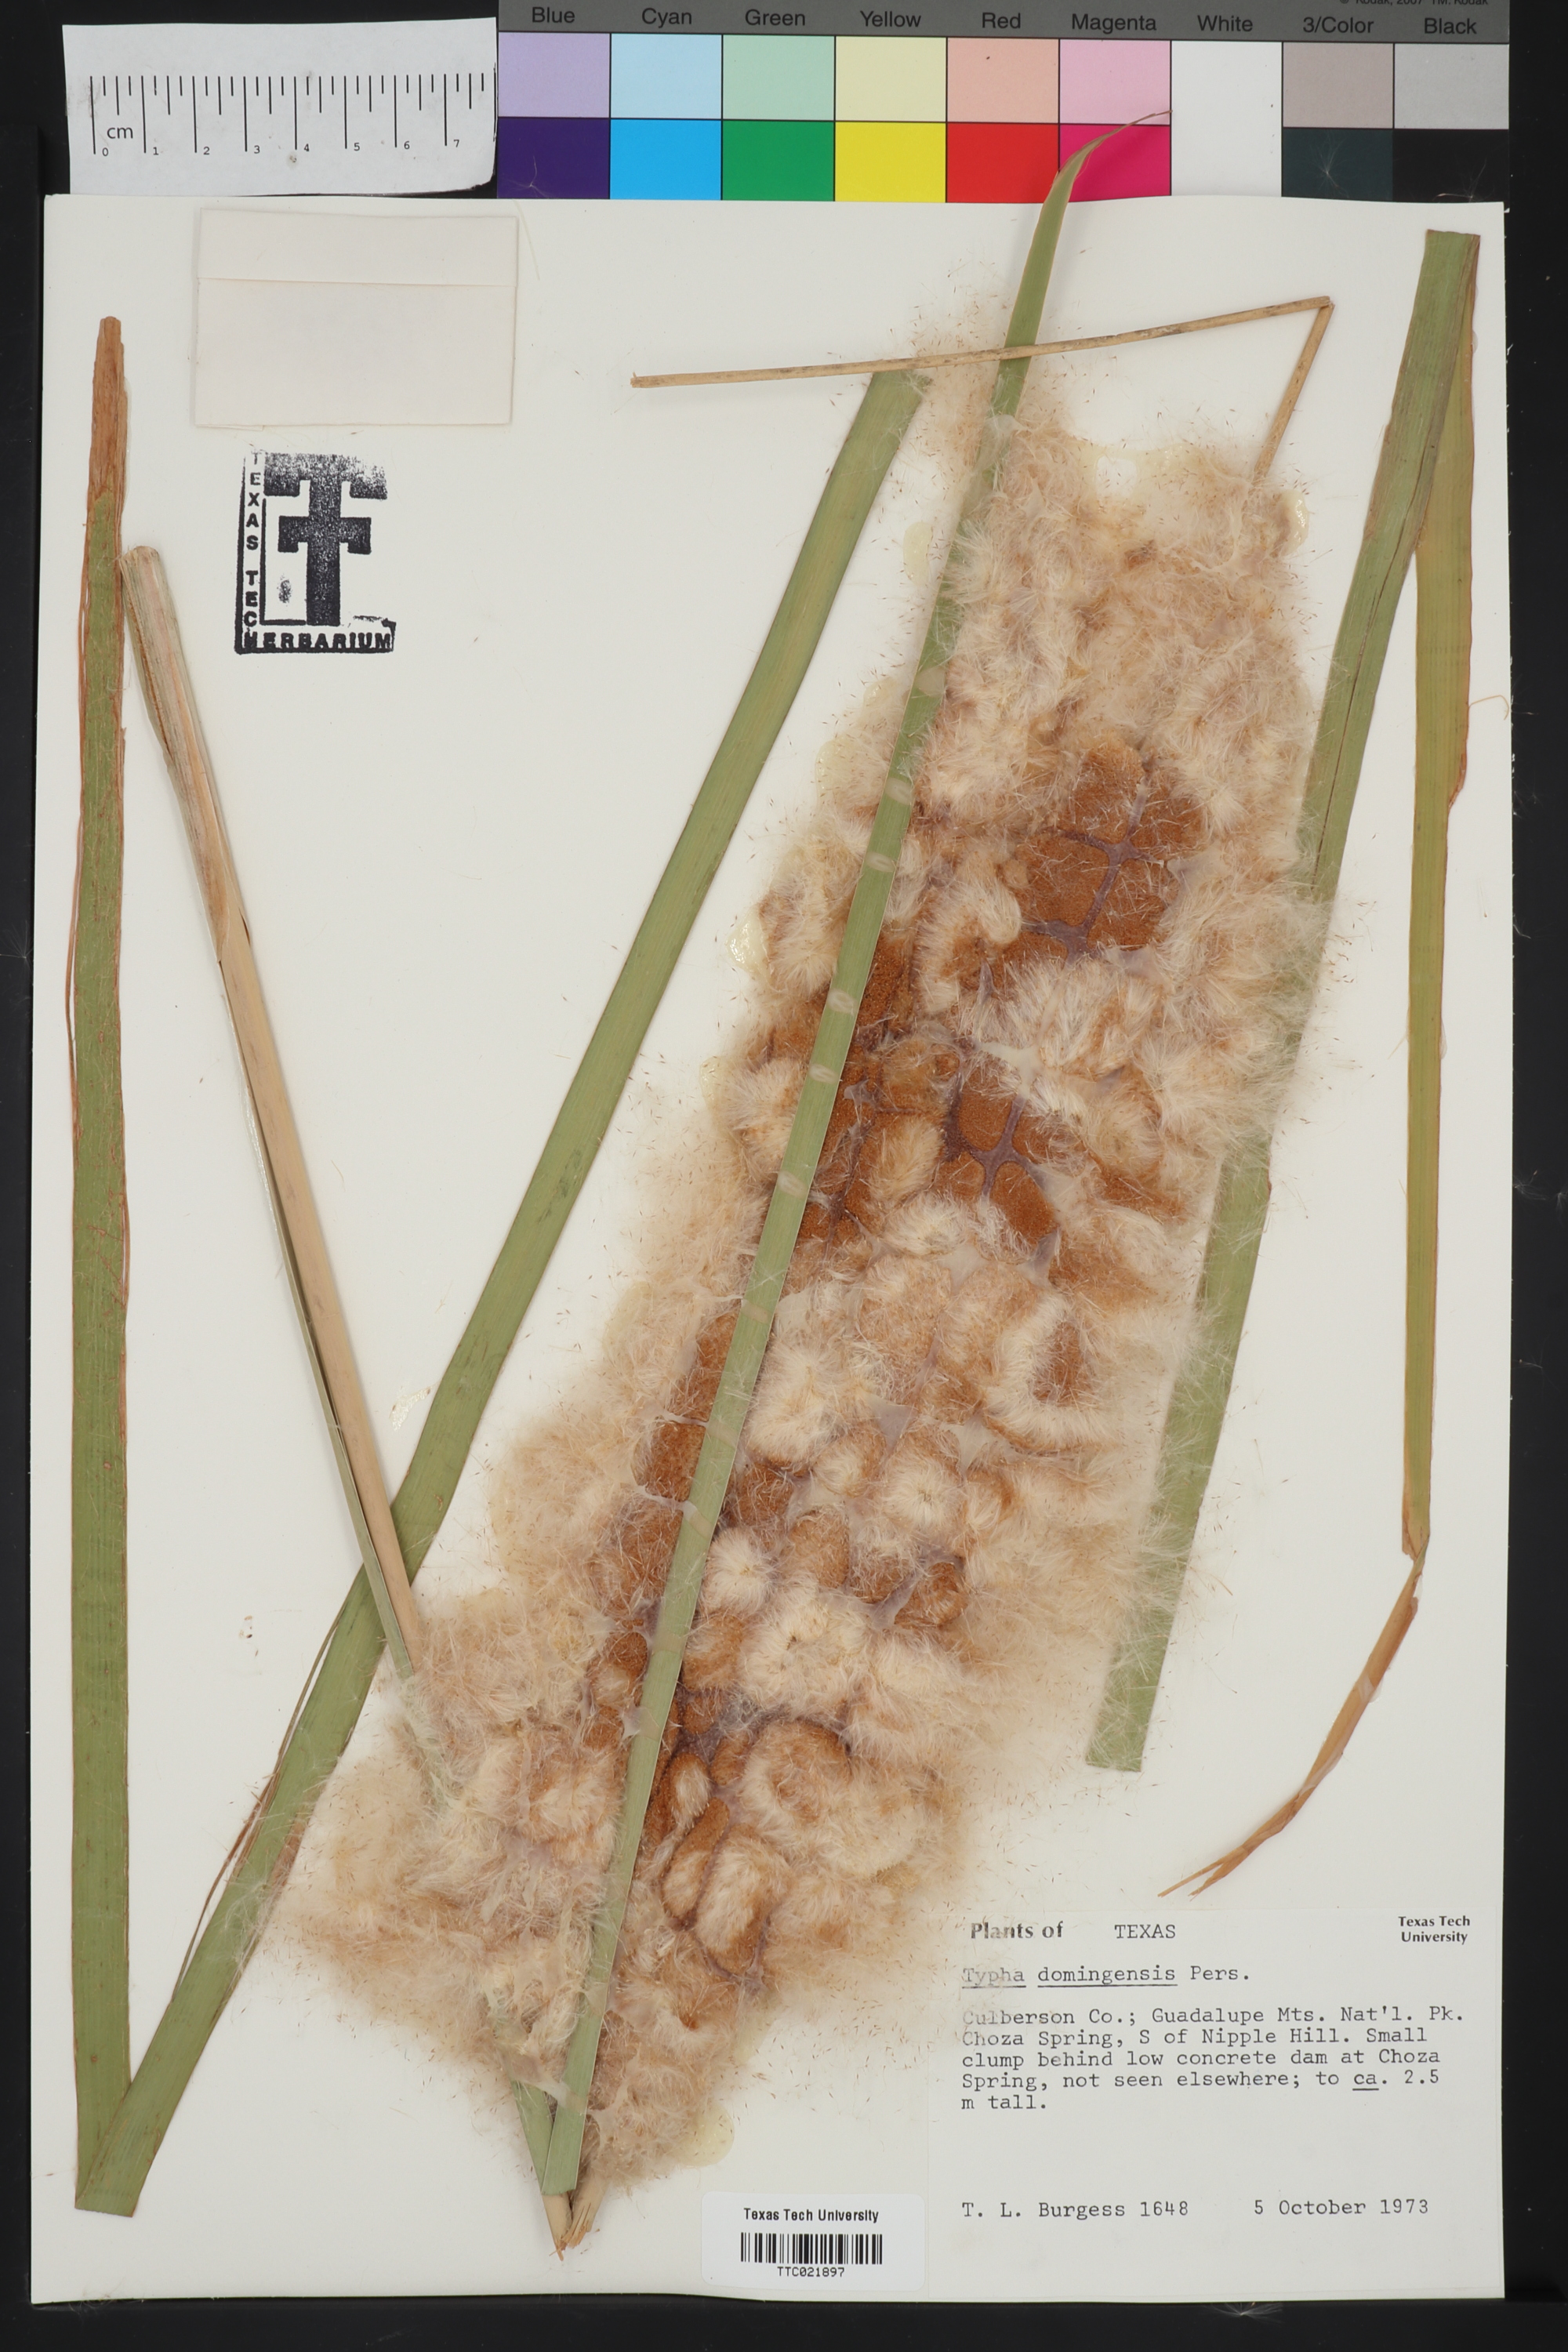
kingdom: Plantae
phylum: Tracheophyta
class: Liliopsida
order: Poales
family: Typhaceae
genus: Typha
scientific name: Typha domingensis
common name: Southern cattail
